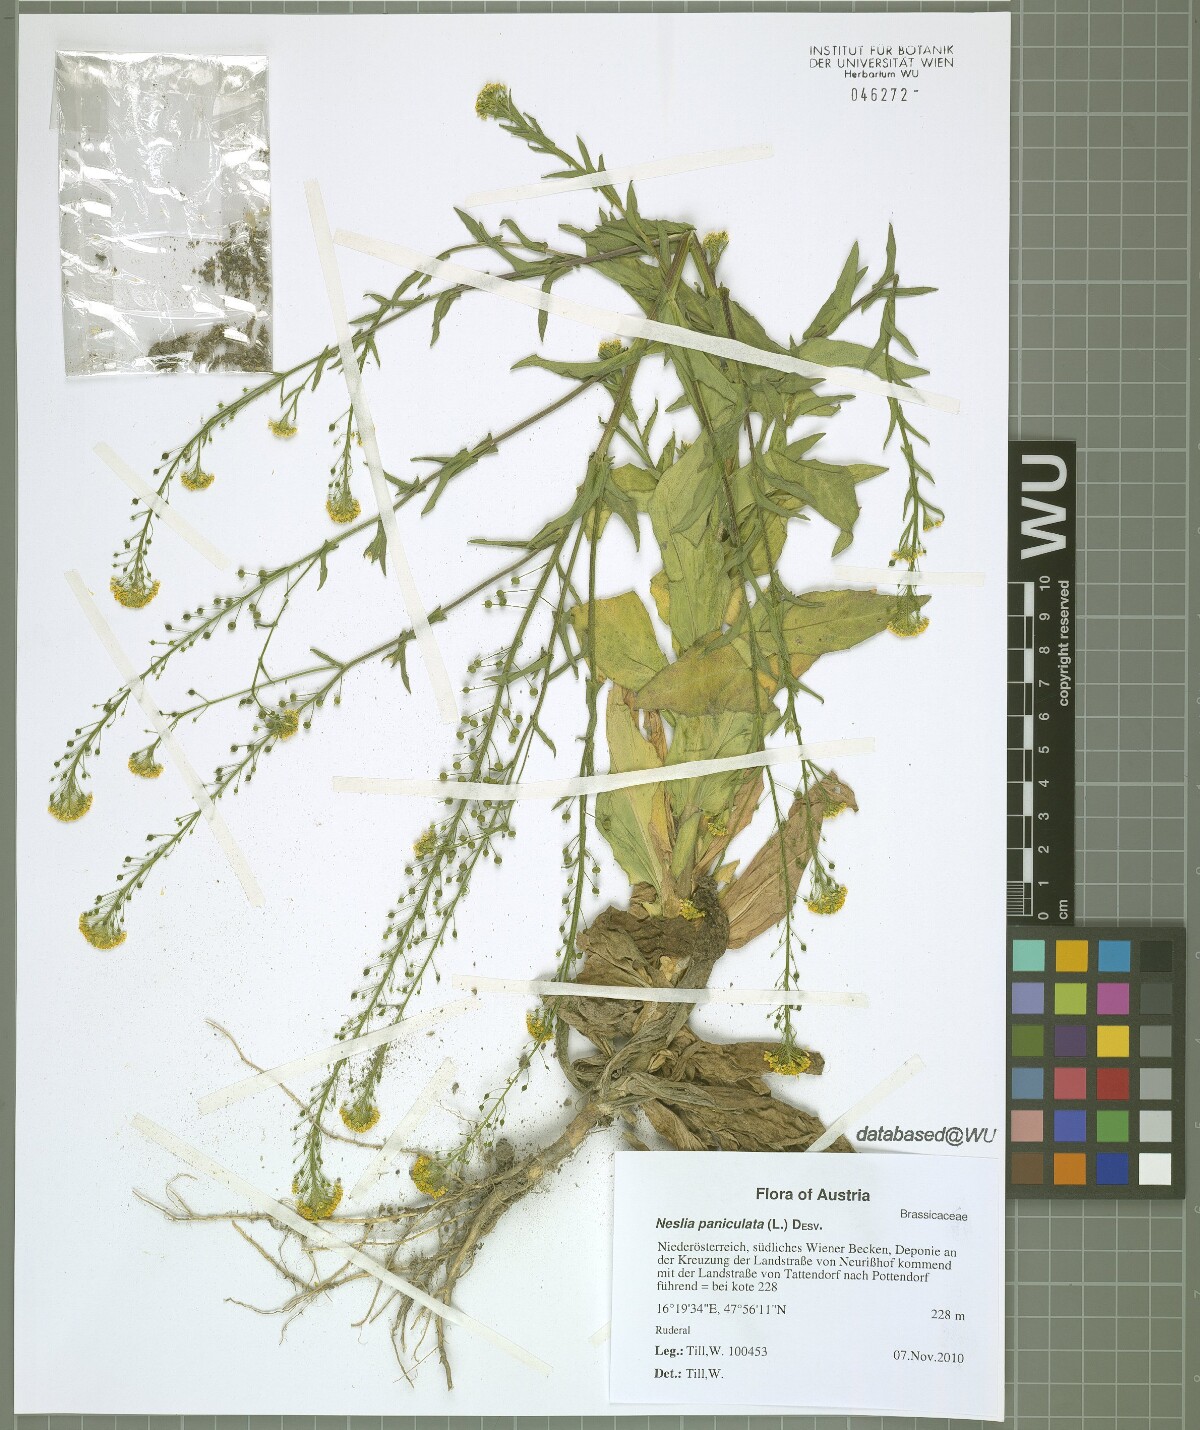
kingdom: Plantae
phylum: Tracheophyta
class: Magnoliopsida
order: Brassicales
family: Brassicaceae
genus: Neslia
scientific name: Neslia paniculata
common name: Ball mustard
